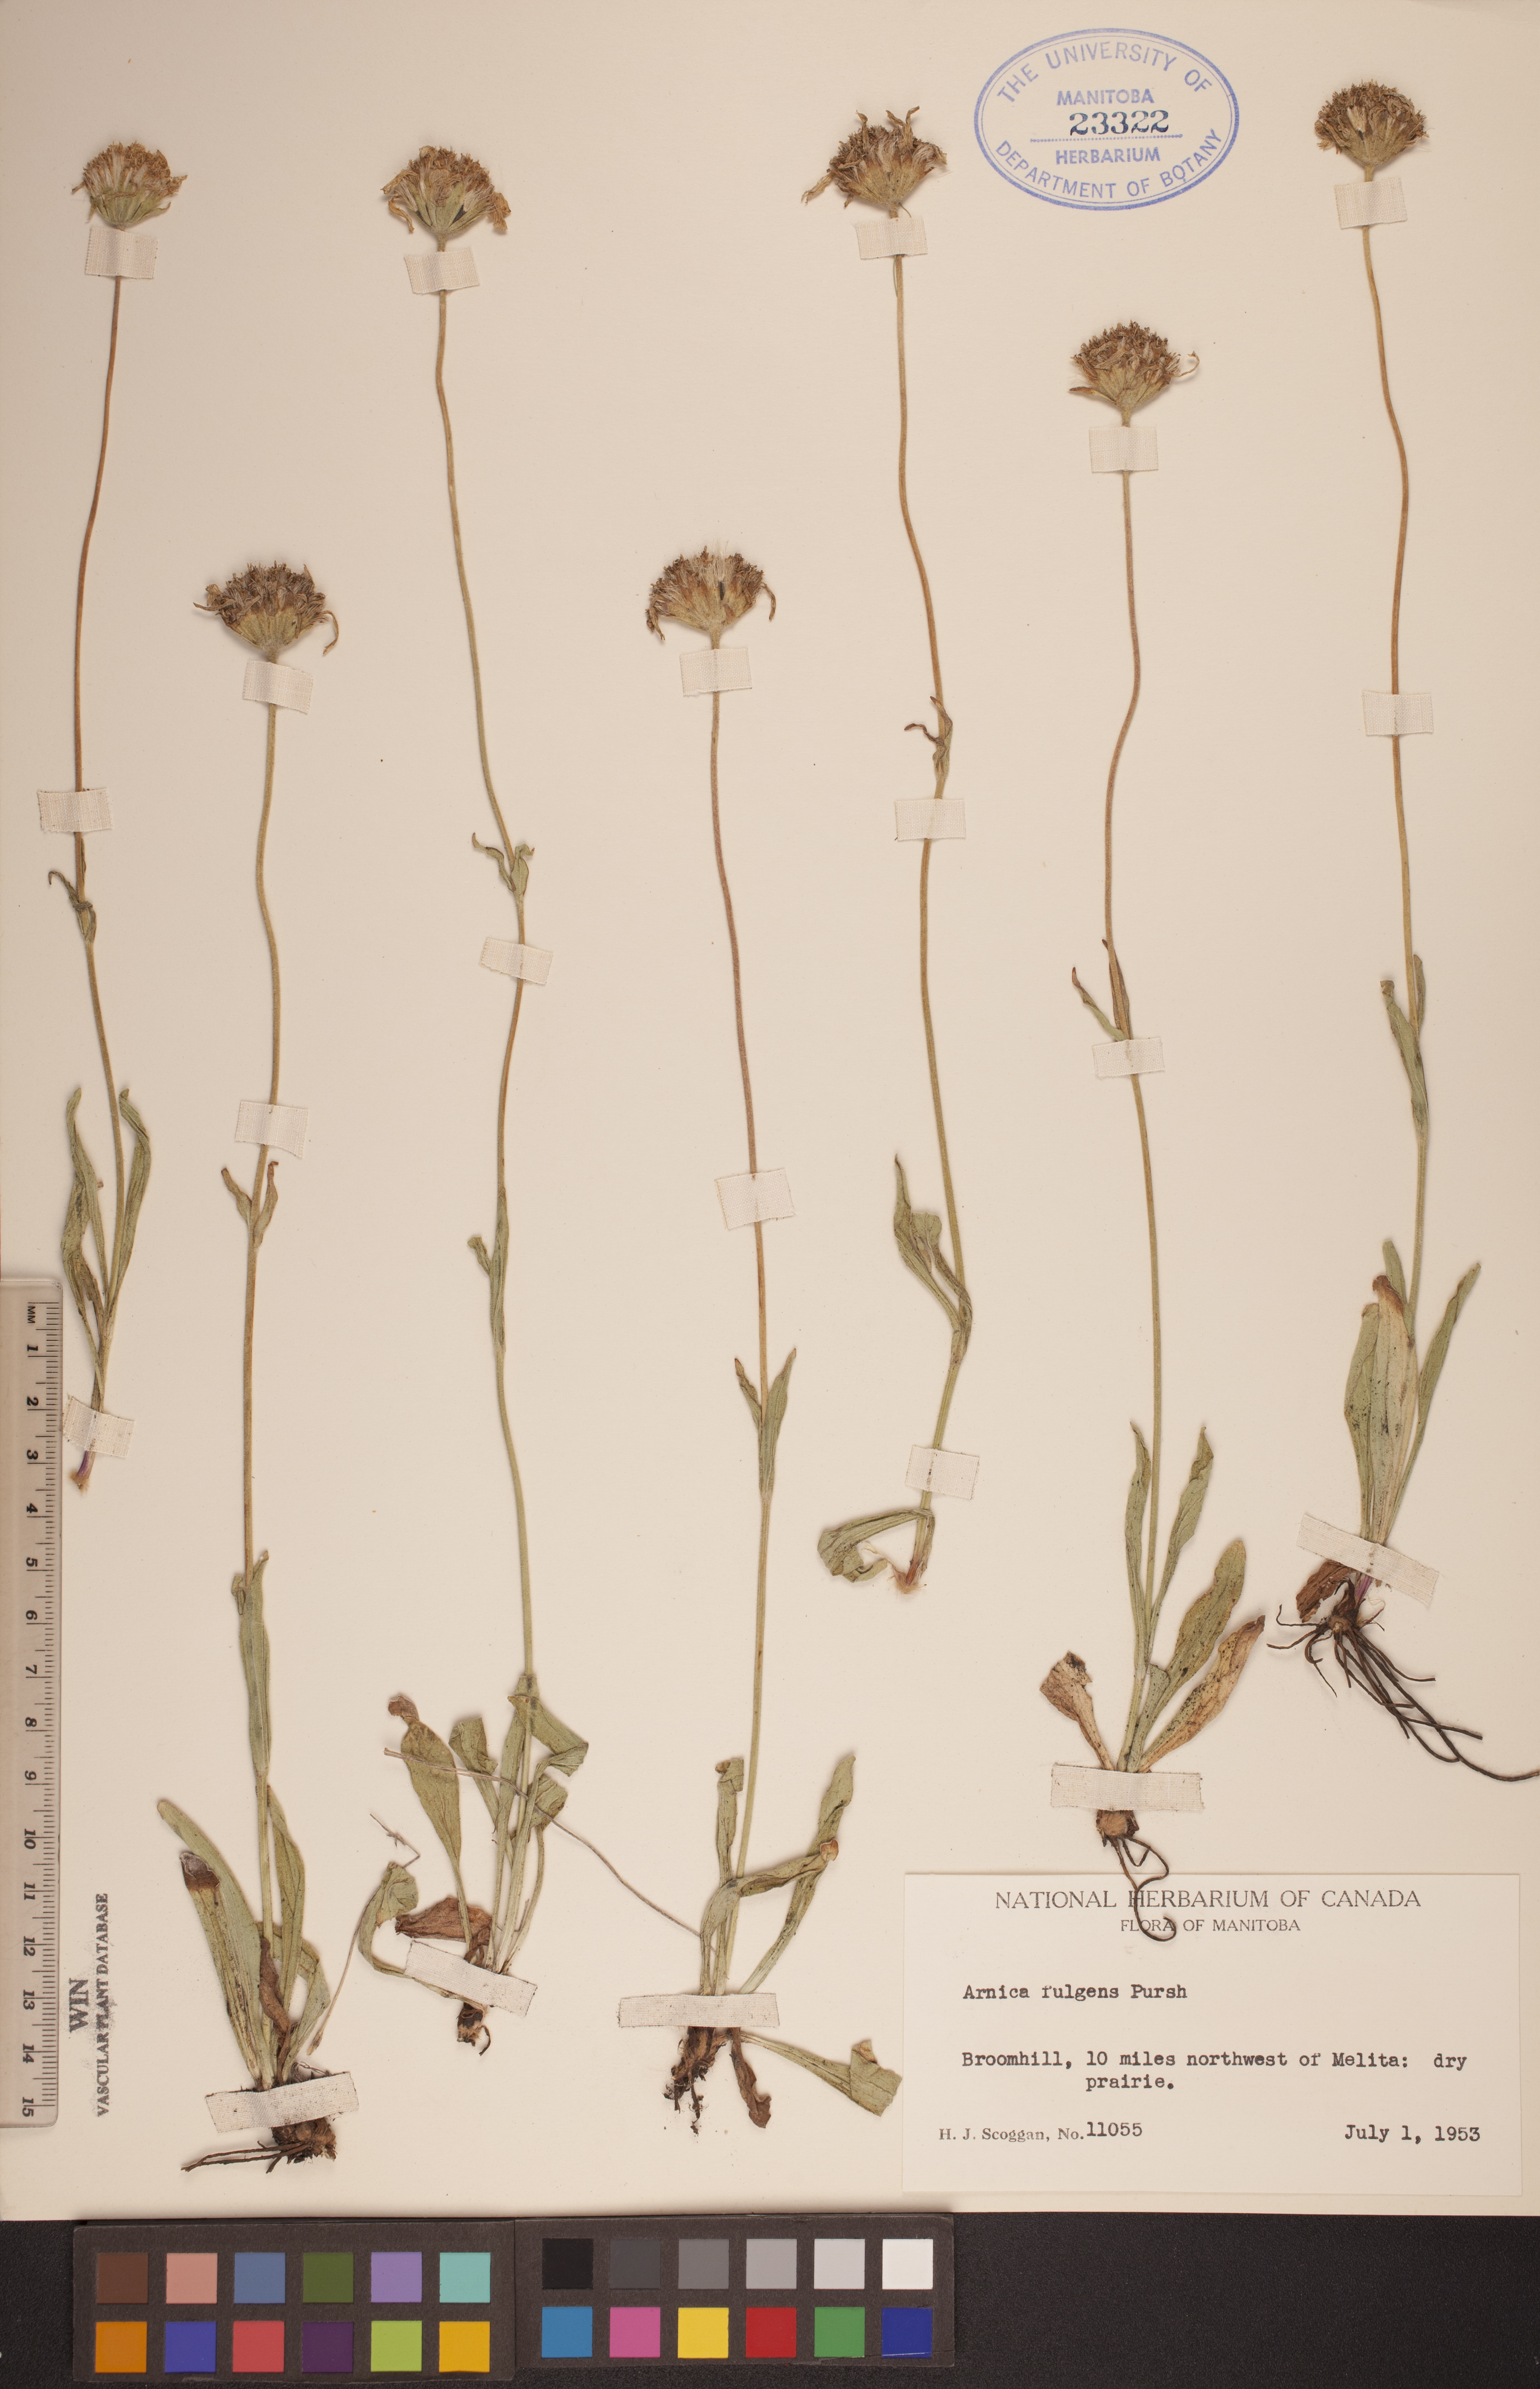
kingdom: Plantae
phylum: Tracheophyta
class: Magnoliopsida
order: Asterales
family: Asteraceae
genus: Arnica
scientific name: Arnica fulgens
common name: Foothill arnica
